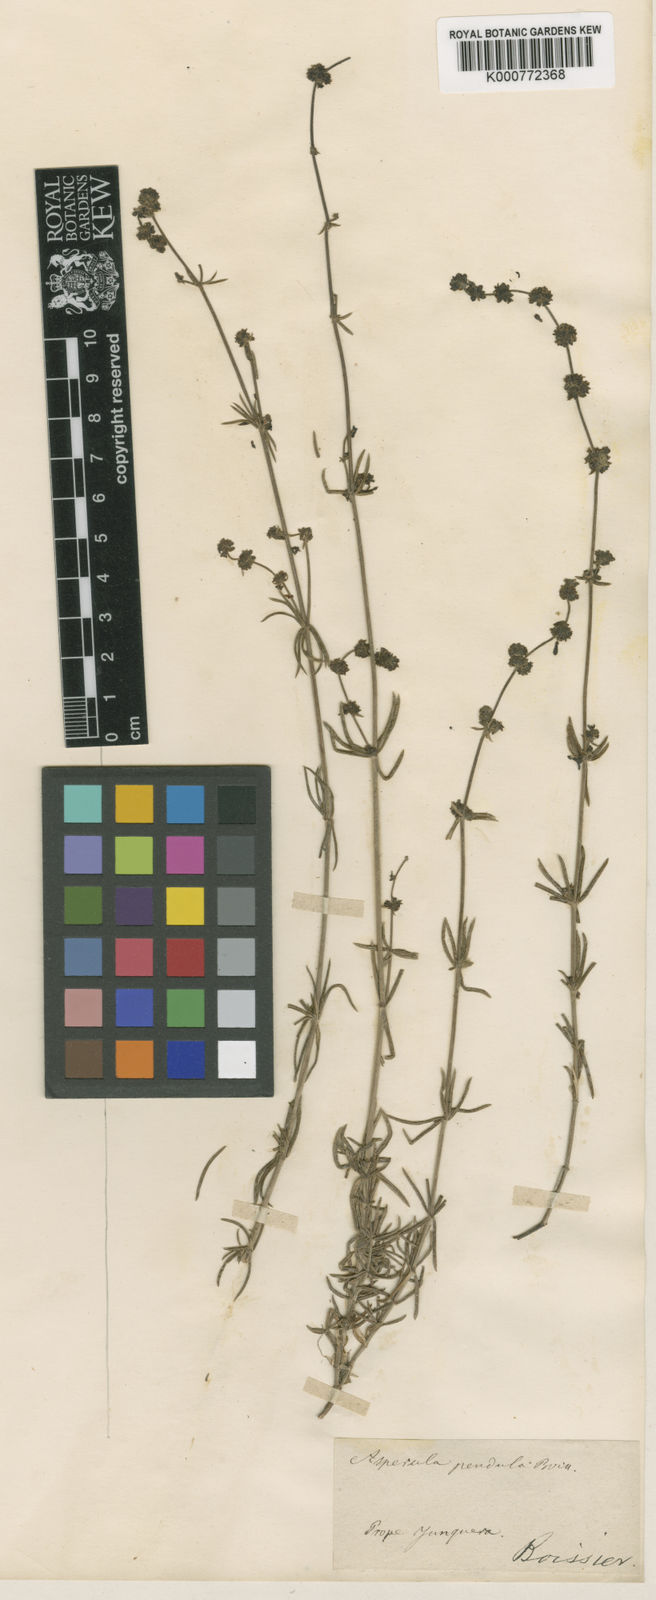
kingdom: Plantae
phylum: Tracheophyta
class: Magnoliopsida
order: Gentianales
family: Rubiaceae
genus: Galium
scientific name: Galium baeticum
